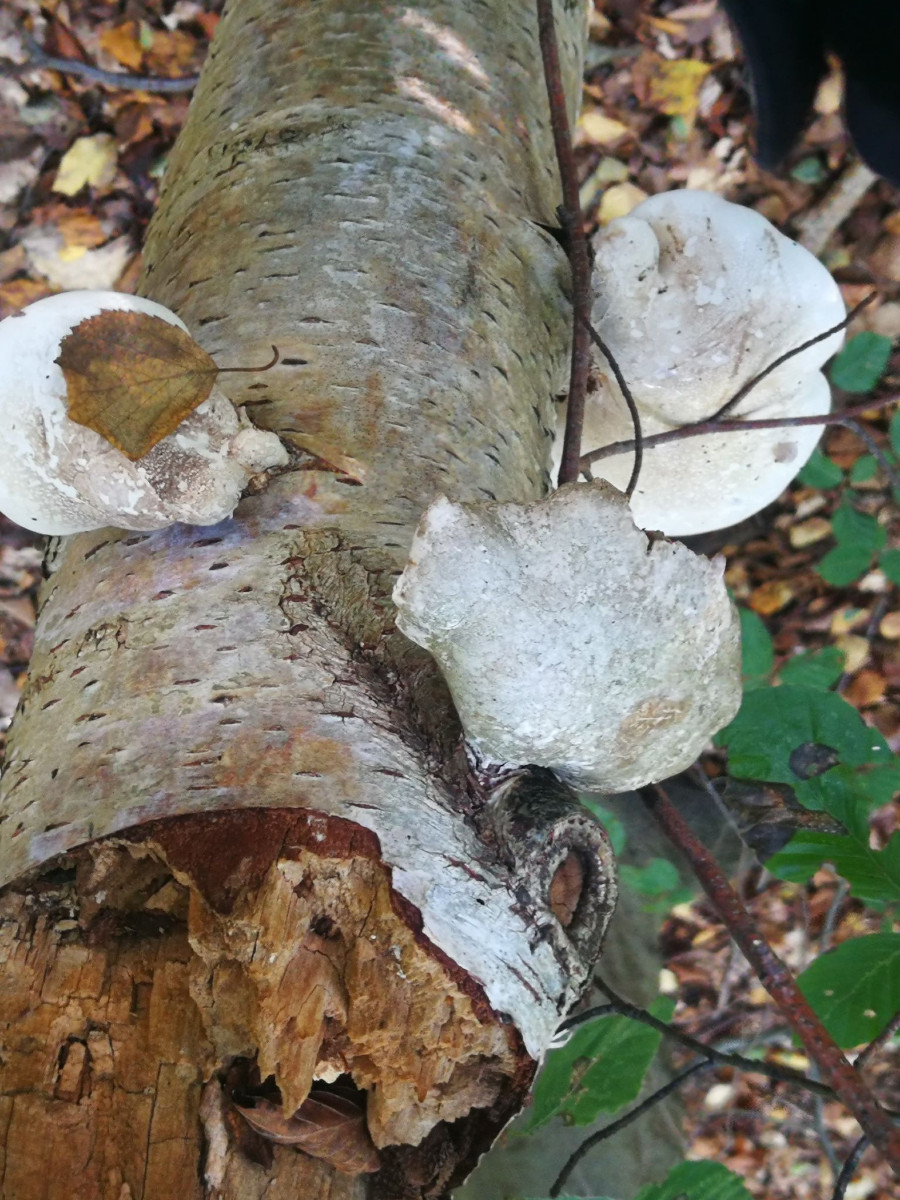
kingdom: Fungi
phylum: Basidiomycota
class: Agaricomycetes
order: Polyporales
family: Fomitopsidaceae
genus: Fomitopsis
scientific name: Fomitopsis betulina
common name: birkeporesvamp
